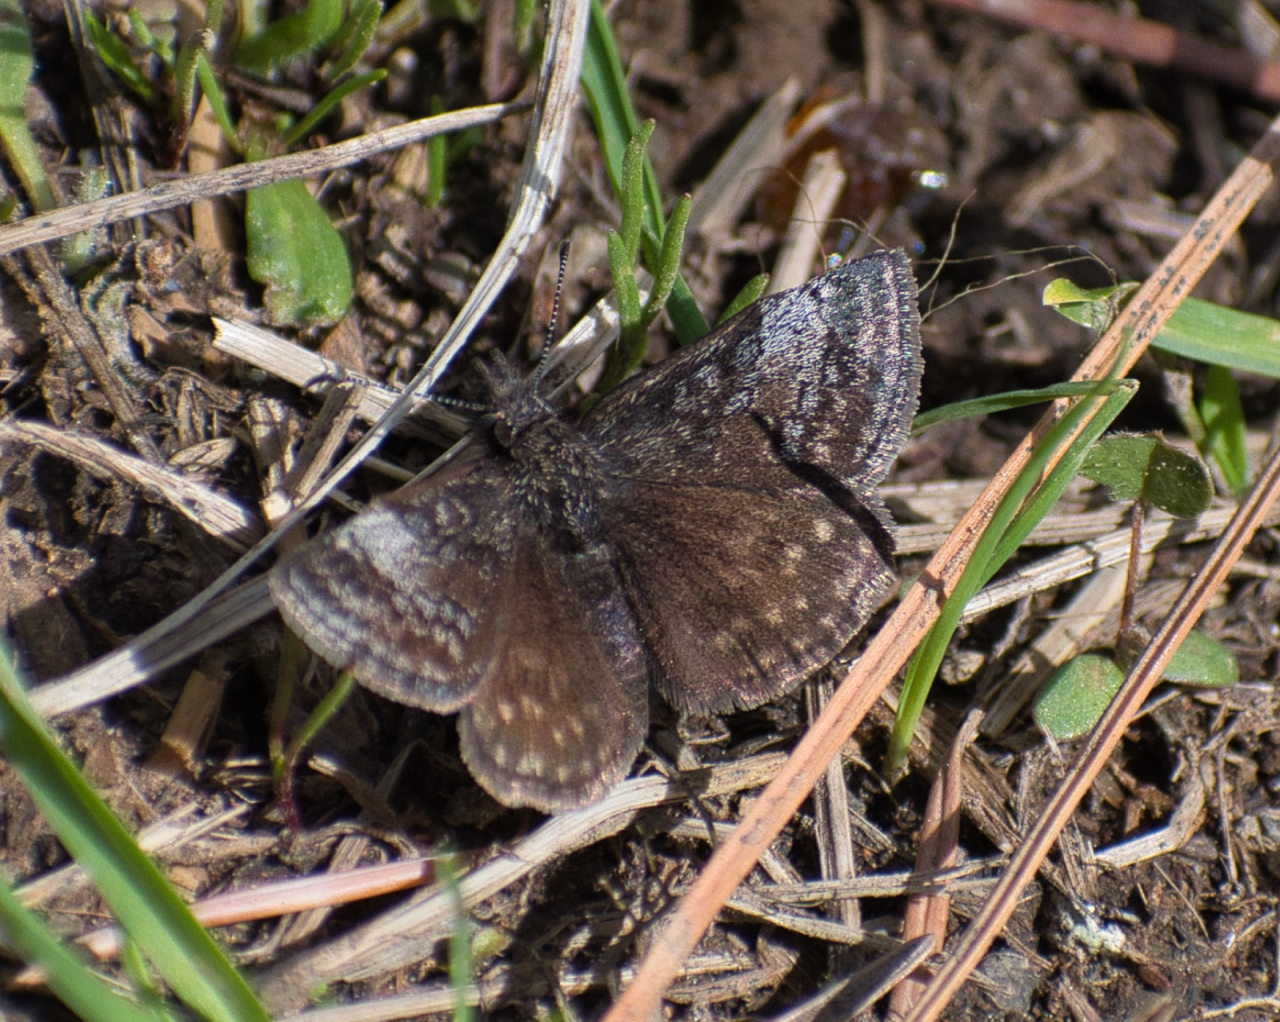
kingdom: Animalia
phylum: Arthropoda
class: Insecta
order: Lepidoptera
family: Hesperiidae
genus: Erynnis
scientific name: Erynnis icelus
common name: Dreamy Duskywing
